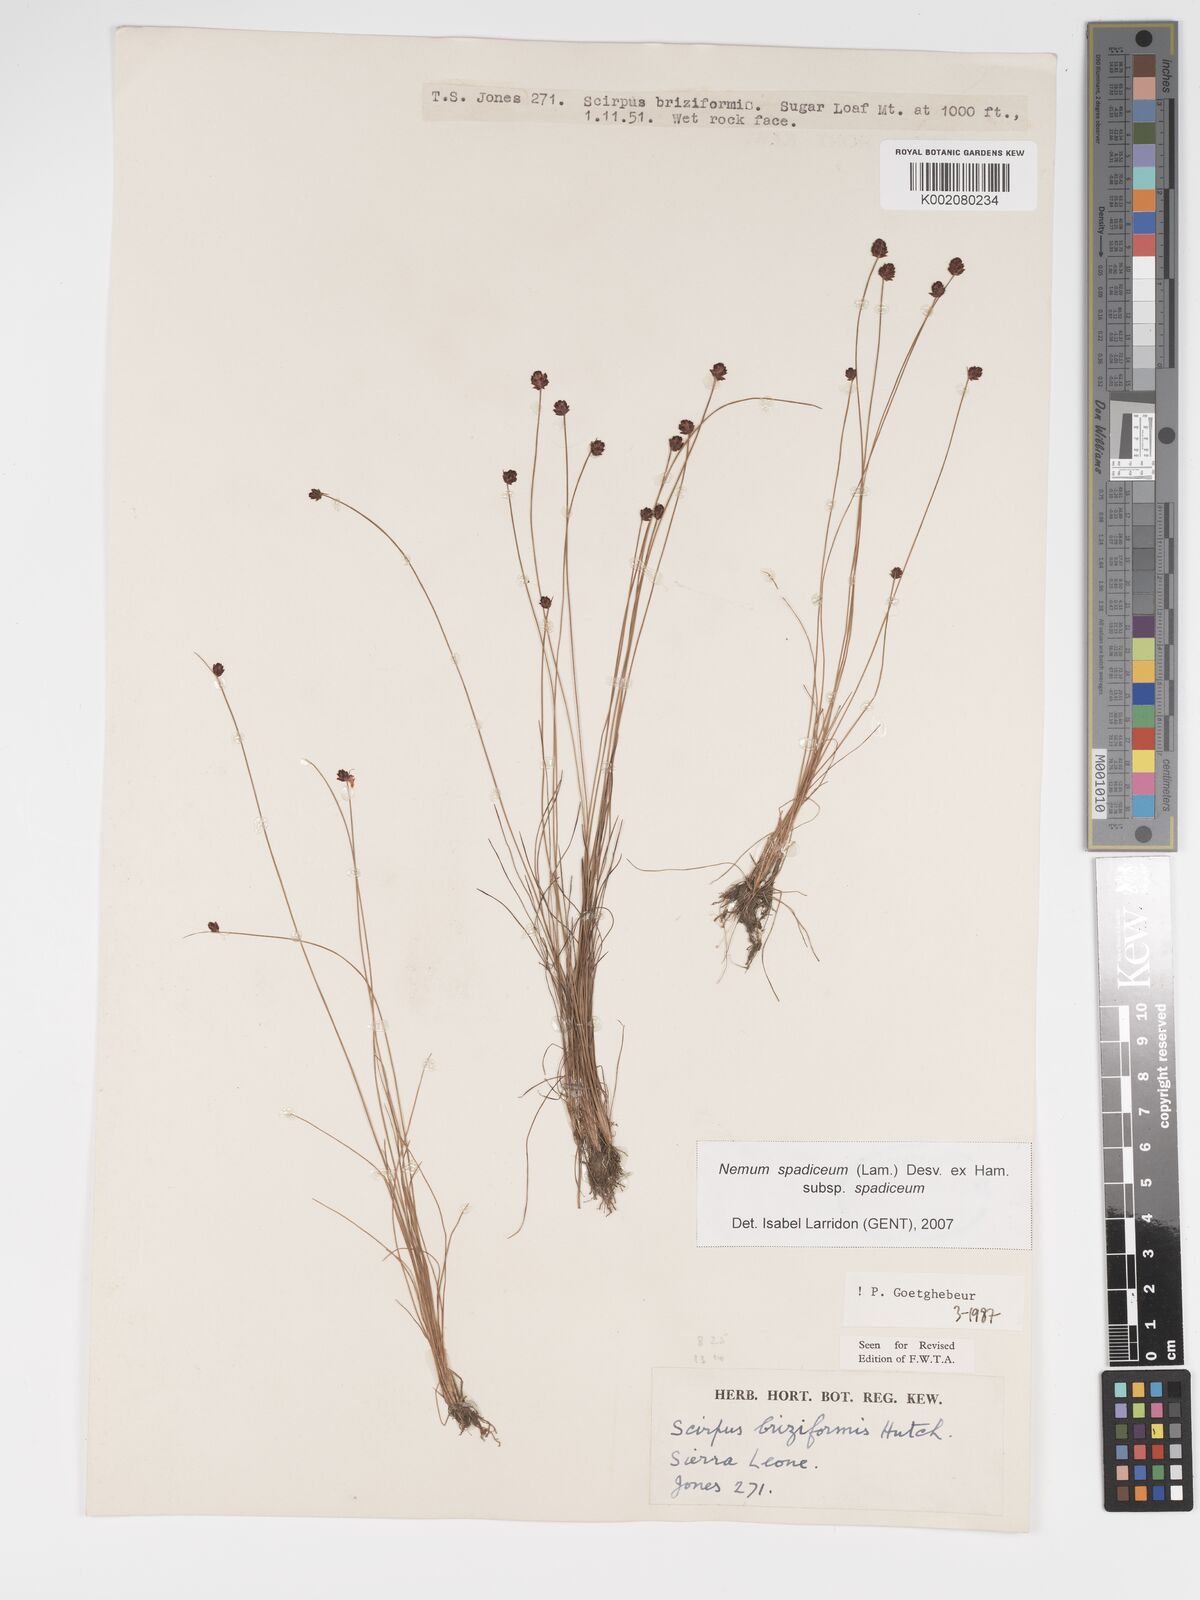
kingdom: Plantae
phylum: Tracheophyta
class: Liliopsida
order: Poales
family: Cyperaceae
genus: Bulbostylis
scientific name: Bulbostylis briziformis
